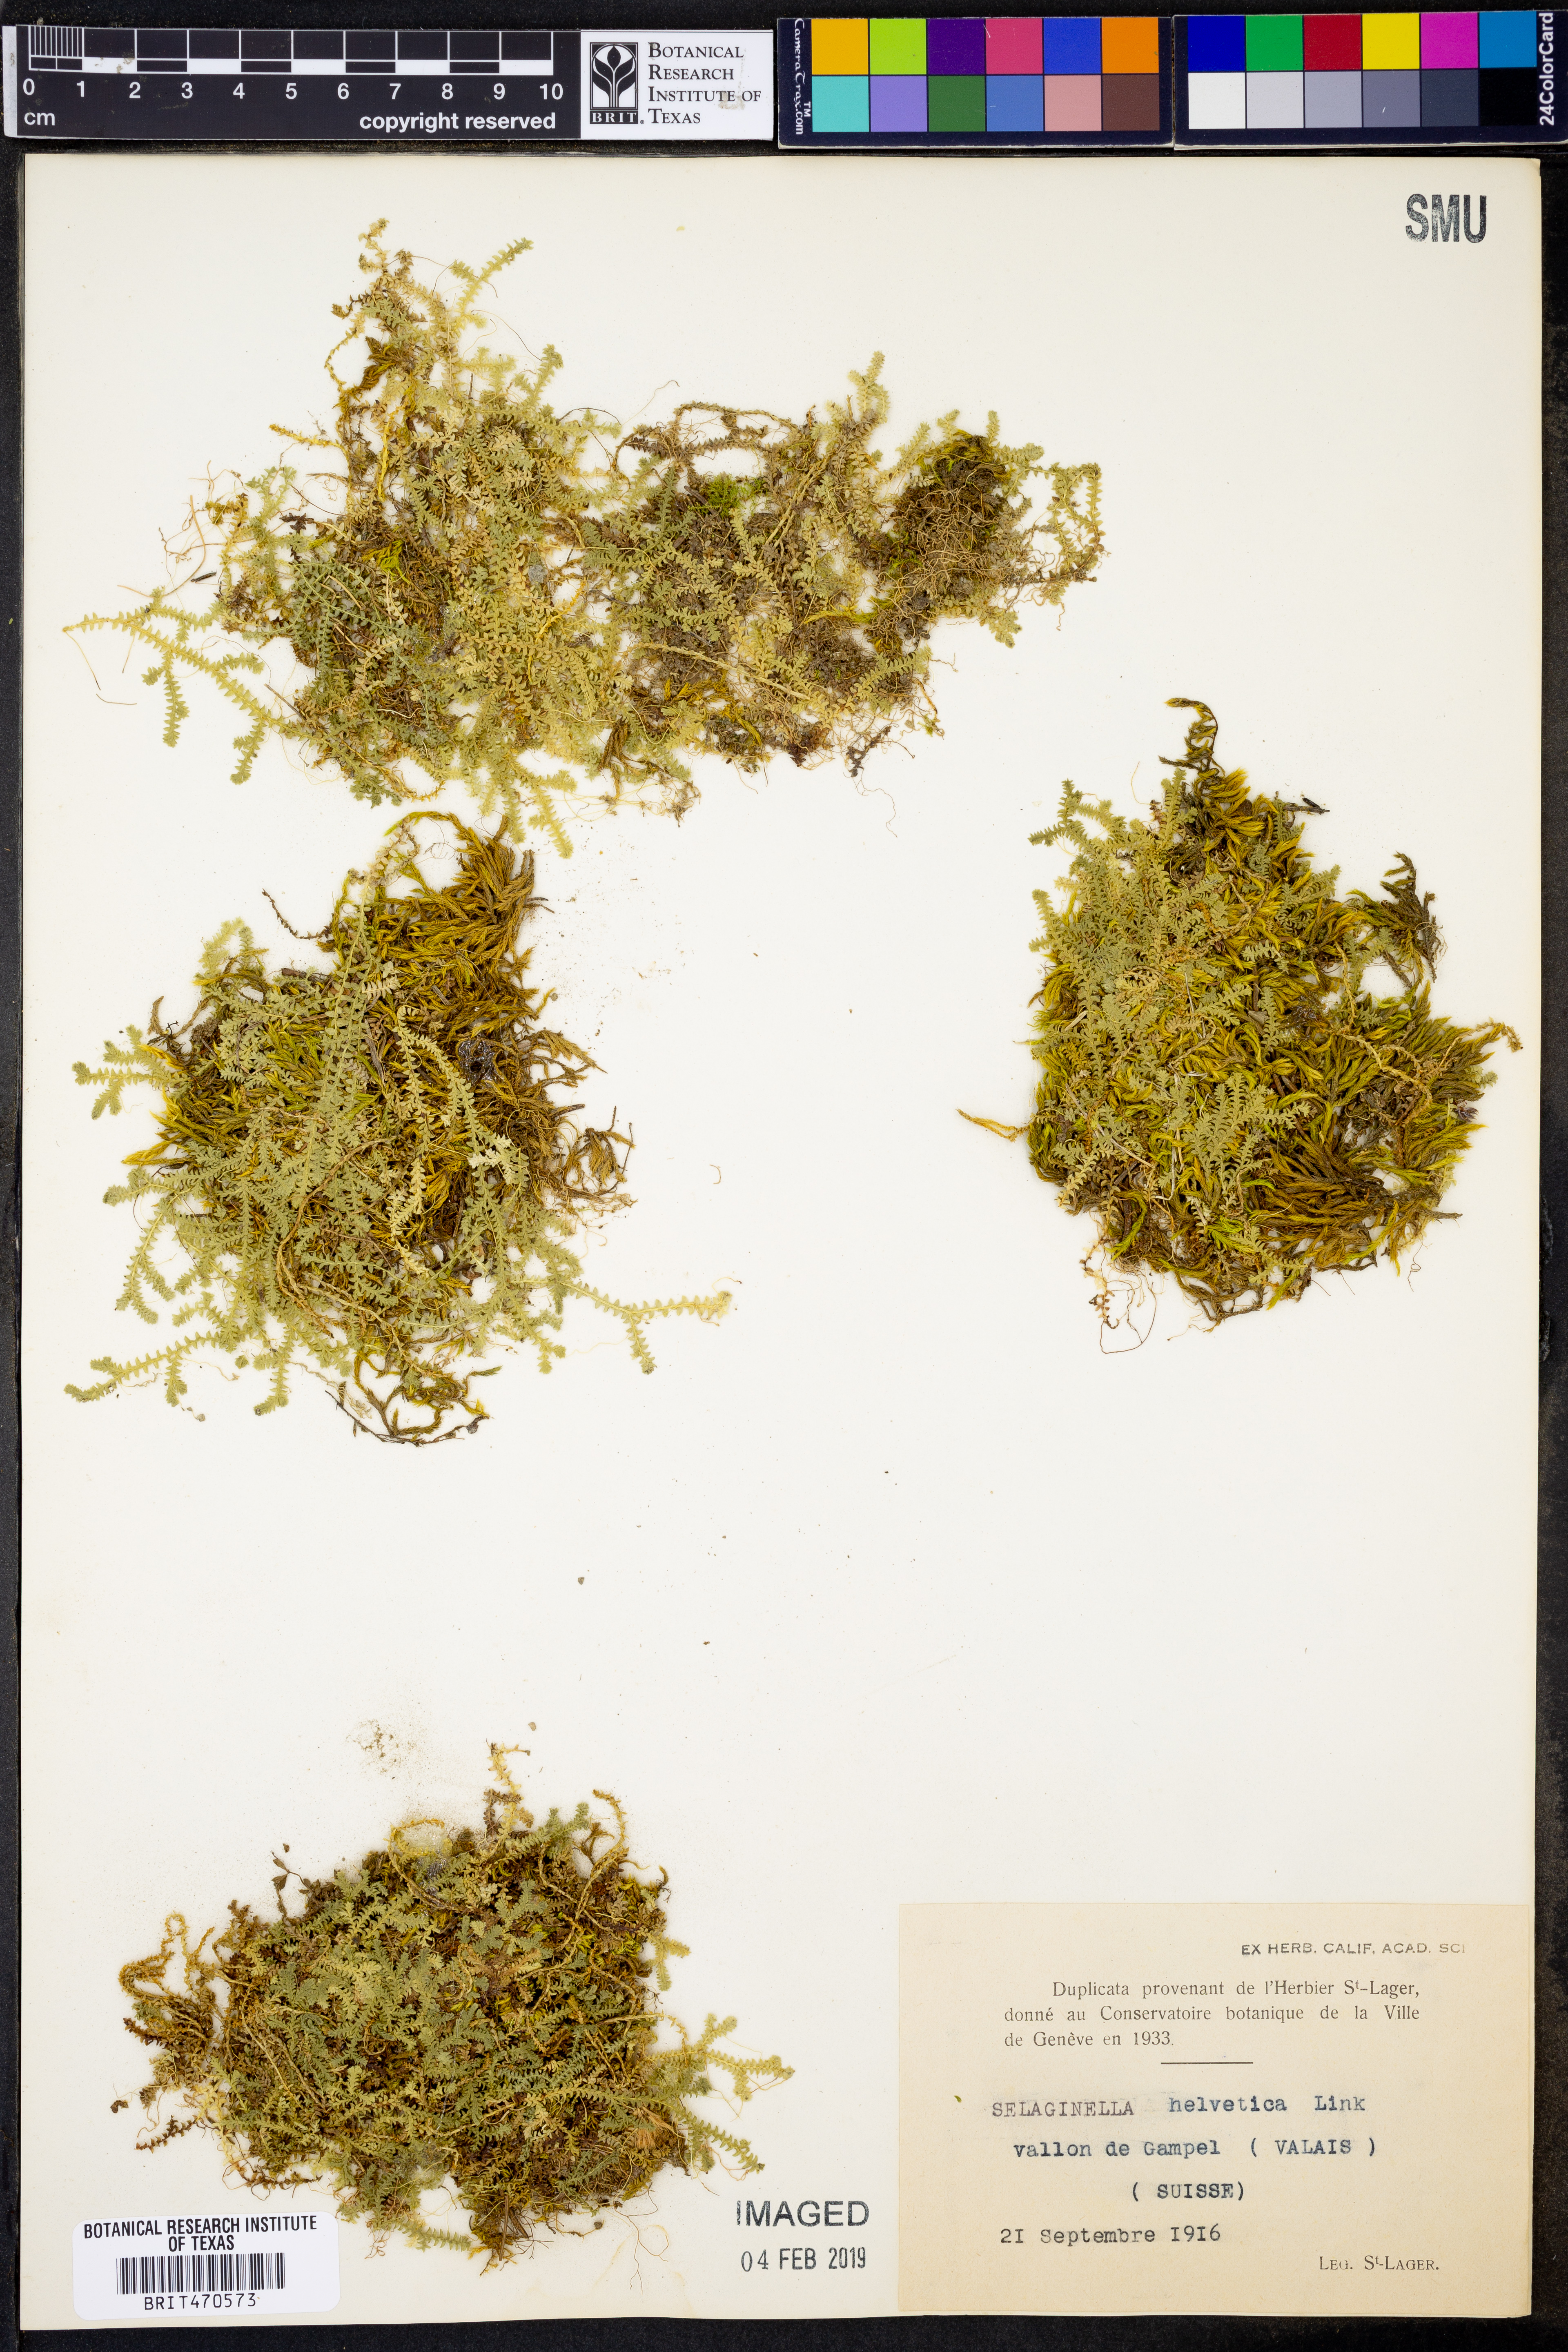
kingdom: Plantae
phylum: Tracheophyta
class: Lycopodiopsida
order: Selaginellales
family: Selaginellaceae
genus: Selaginella
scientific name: Selaginella helvetica
